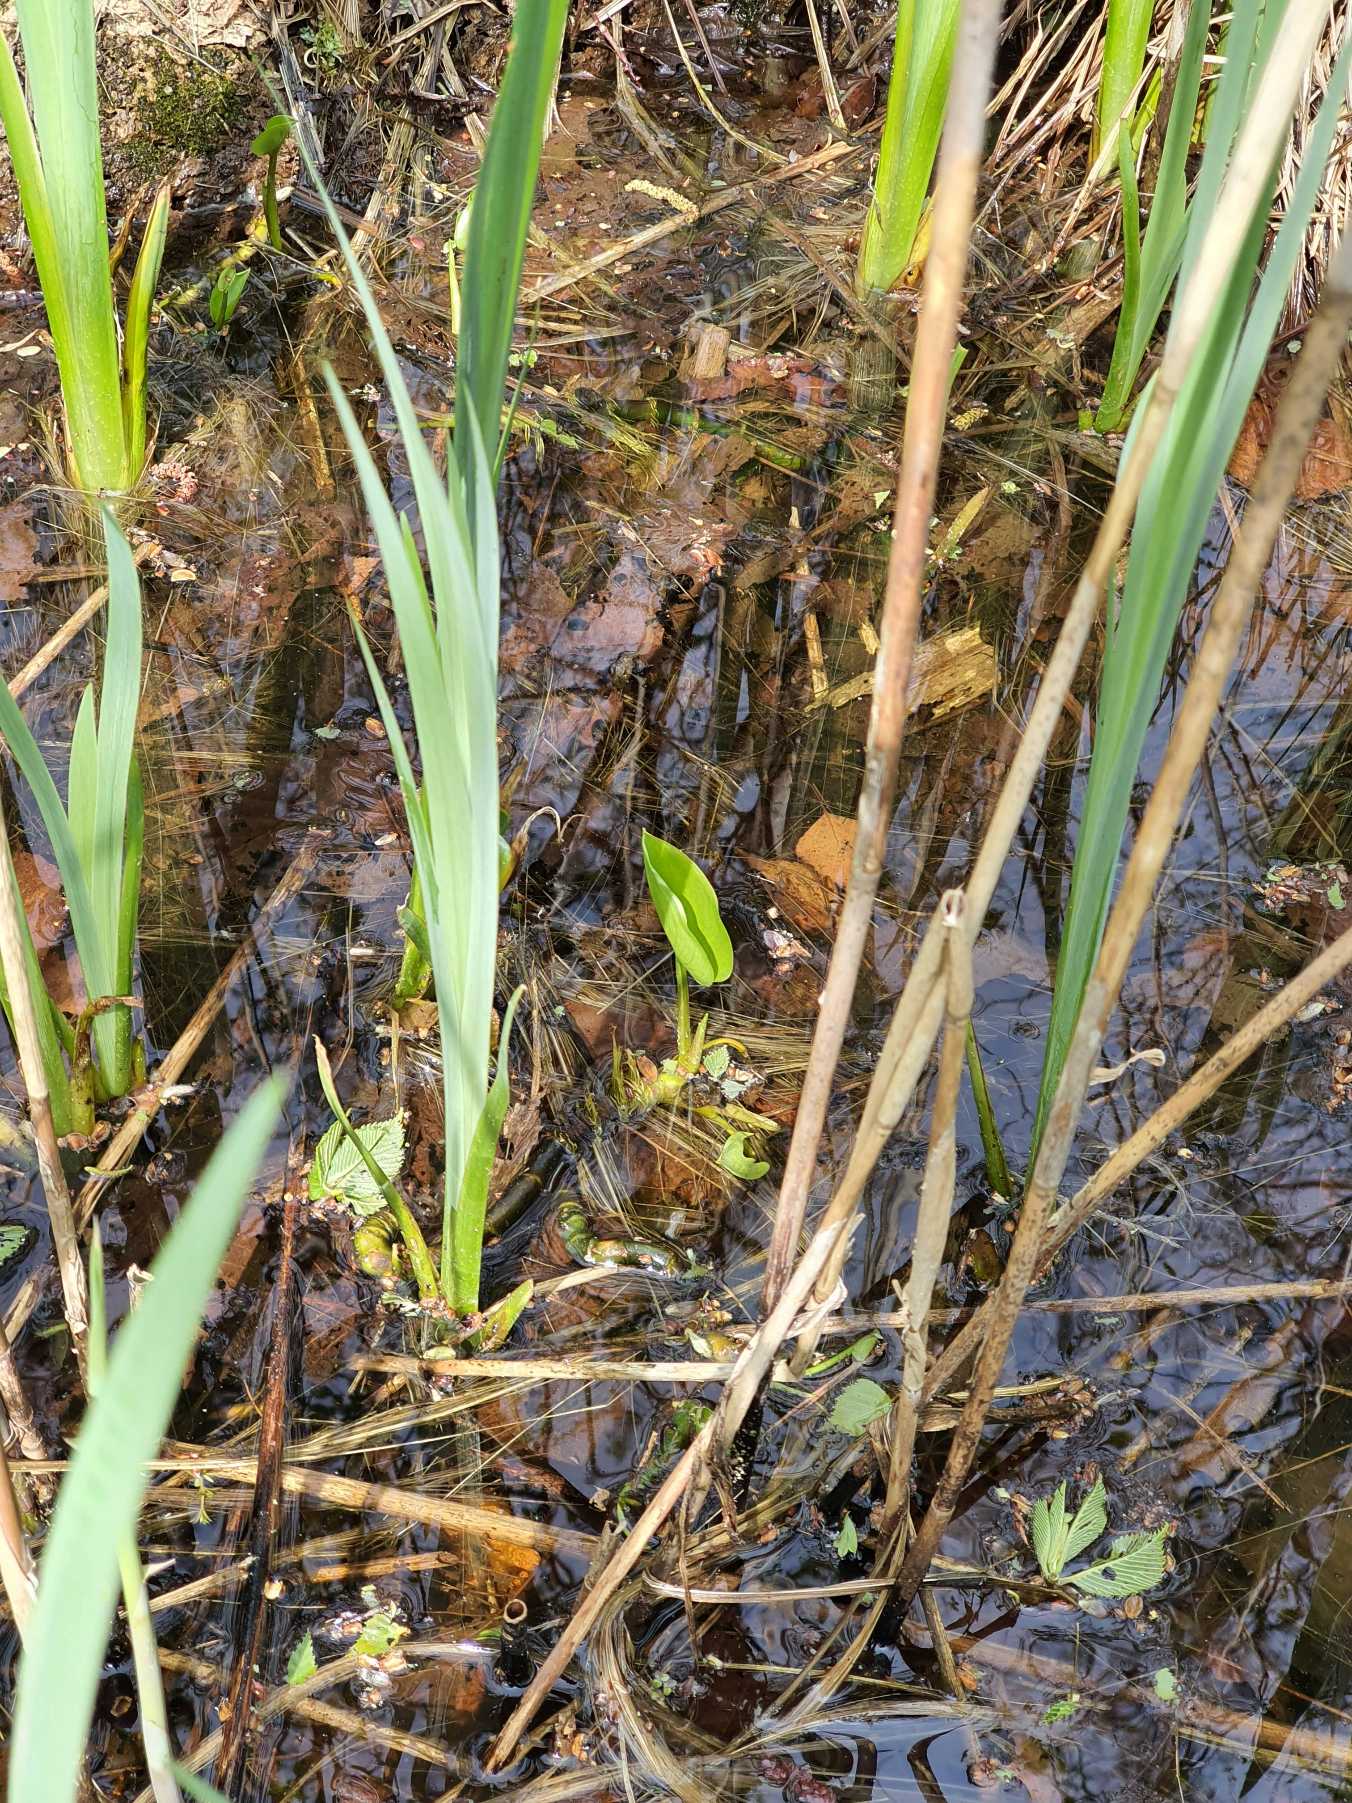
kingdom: Plantae
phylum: Tracheophyta
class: Liliopsida
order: Alismatales
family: Araceae
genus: Calla
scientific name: Calla palustris
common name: Kærmysse
